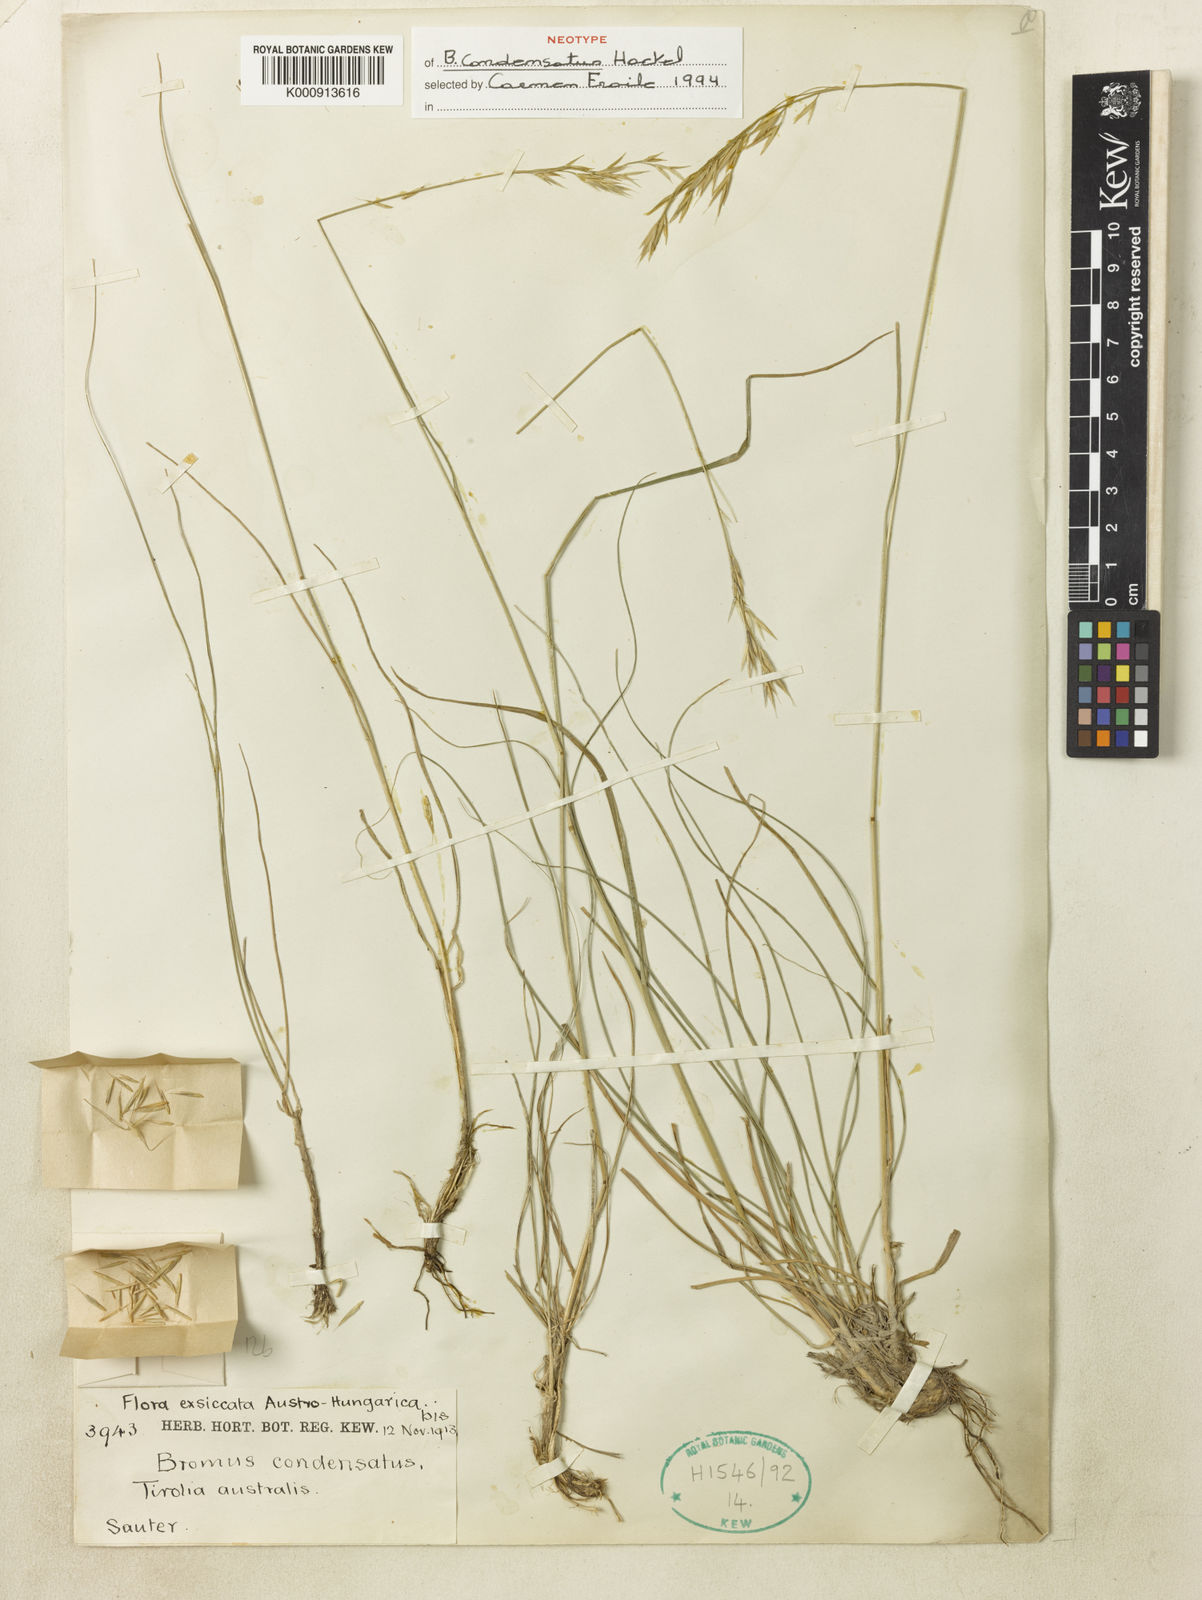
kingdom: Plantae
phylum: Tracheophyta
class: Liliopsida
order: Poales
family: Poaceae
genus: Bromus
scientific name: Bromus commutatus
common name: Meadow brome
